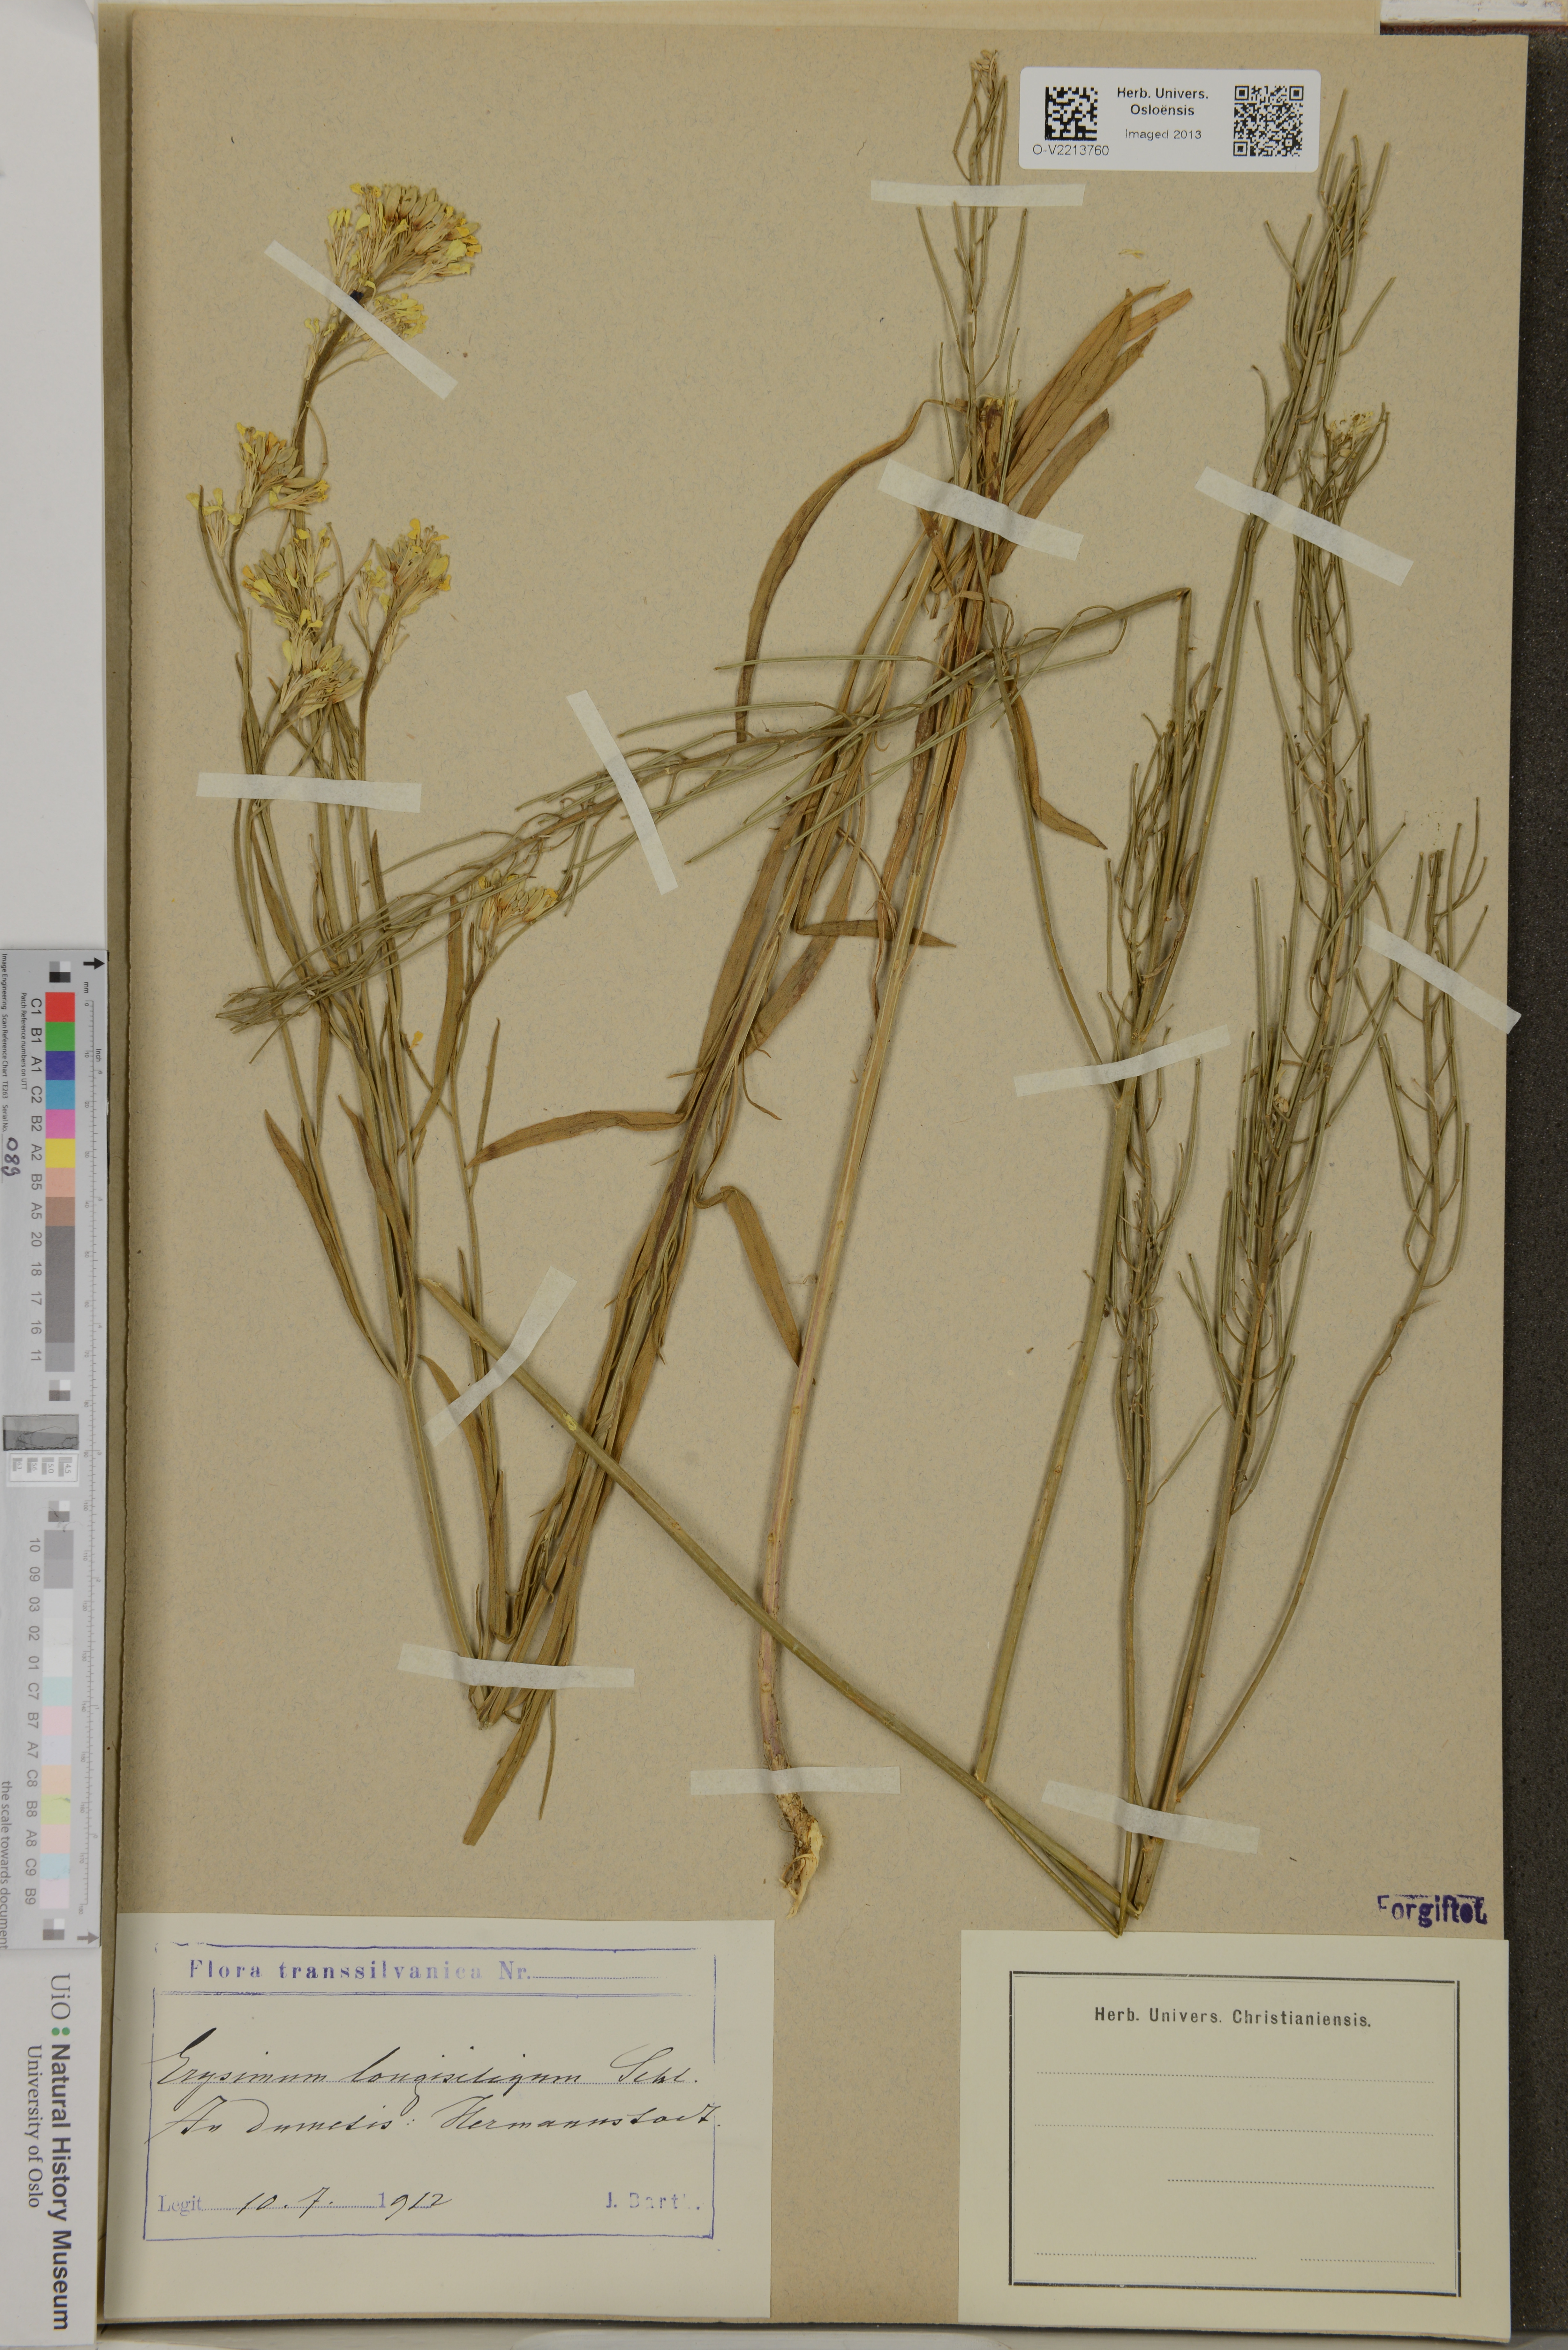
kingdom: Plantae
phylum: Tracheophyta
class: Magnoliopsida
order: Brassicales
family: Brassicaceae
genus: Erysimum
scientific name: Erysimum
